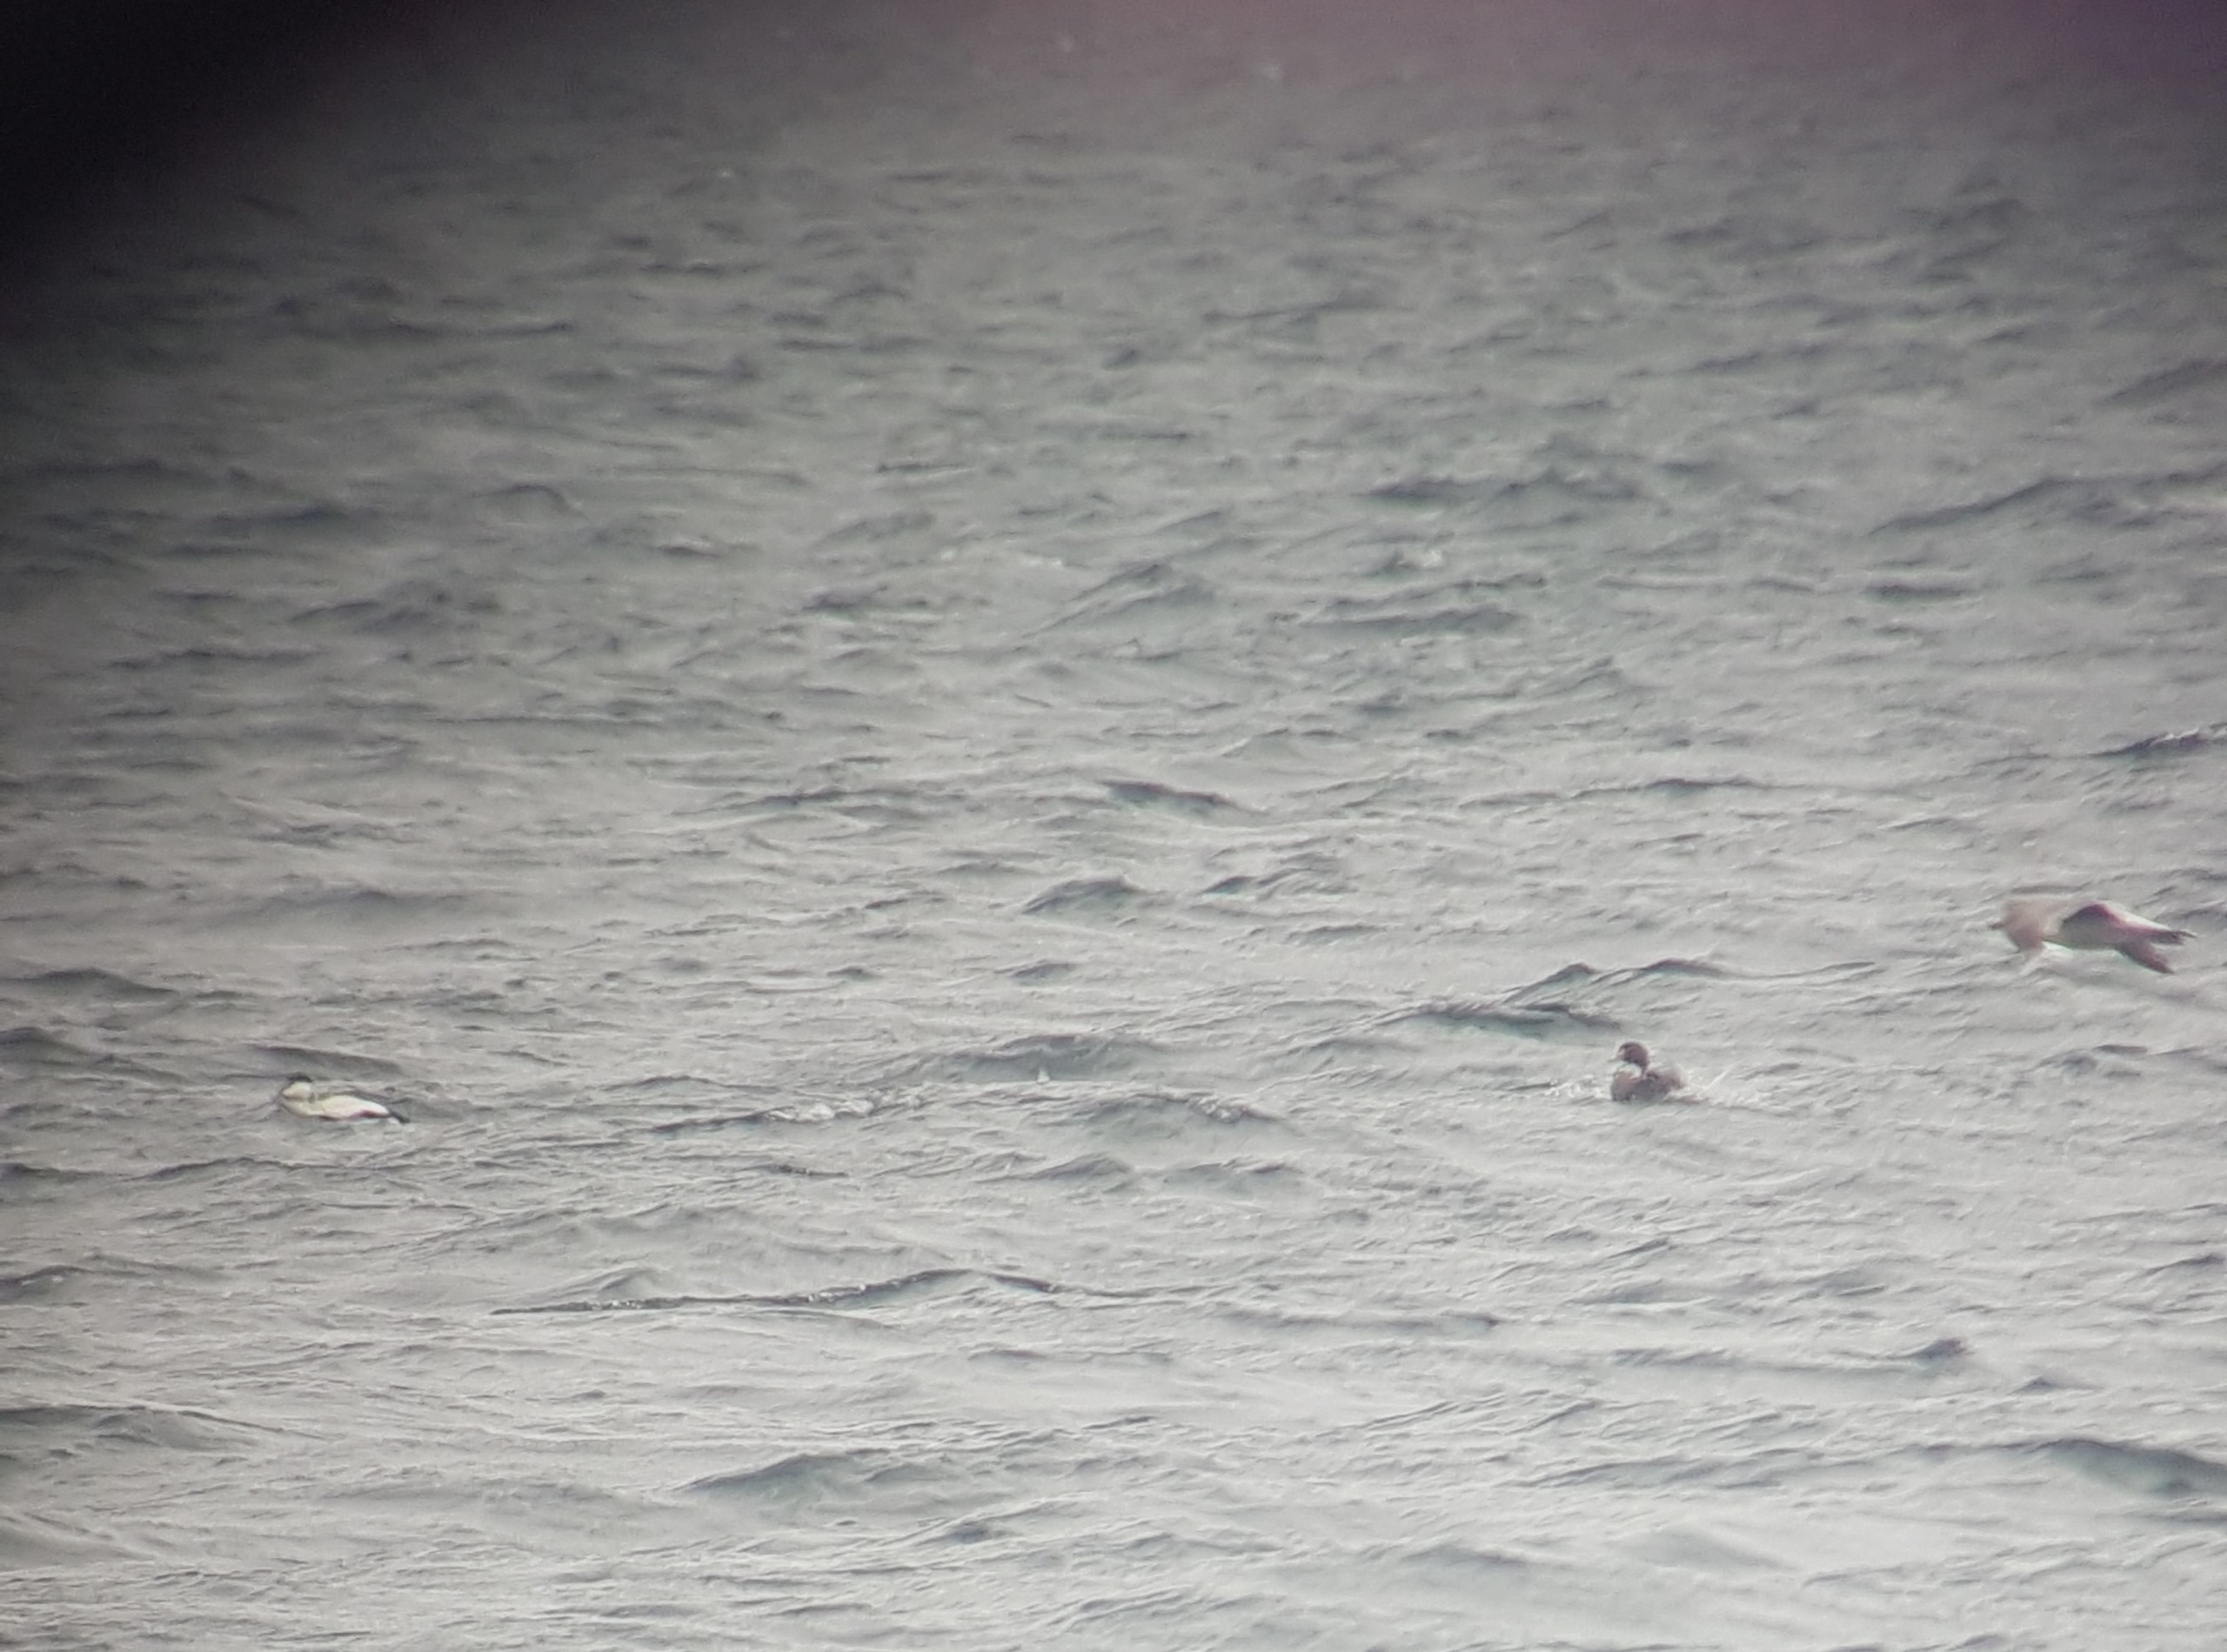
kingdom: Animalia
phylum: Chordata
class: Aves
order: Anseriformes
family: Anatidae
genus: Somateria
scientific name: Somateria spectabilis
